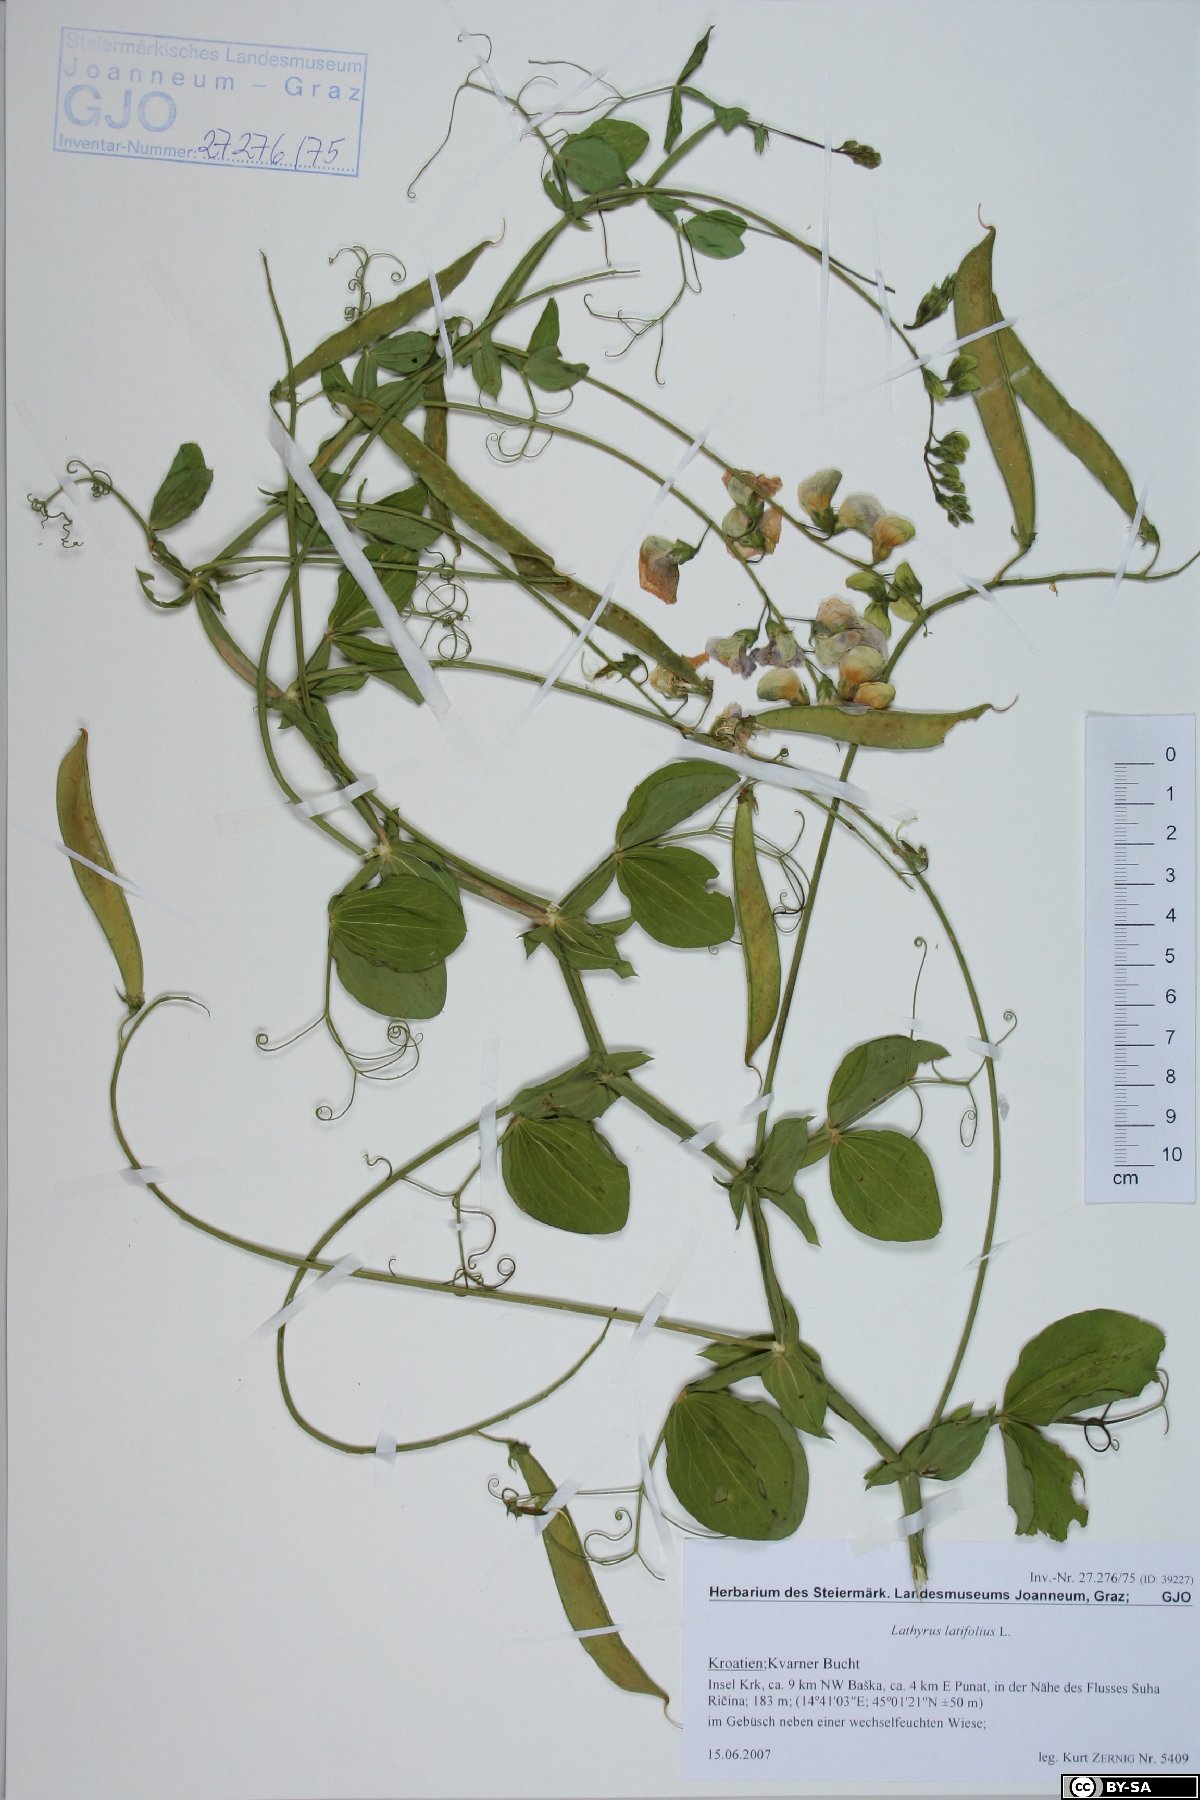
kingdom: Plantae
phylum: Tracheophyta
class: Magnoliopsida
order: Fabales
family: Fabaceae
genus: Lathyrus
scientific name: Lathyrus latifolius
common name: Perennial pea
